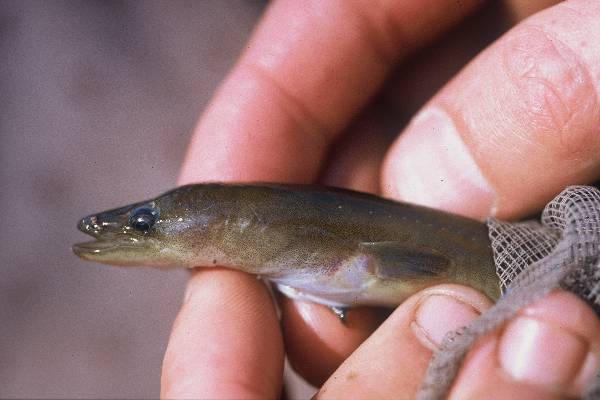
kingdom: Animalia
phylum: Chordata
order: Anguilliformes
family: Anguillidae
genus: Anguilla
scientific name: Anguilla mossambica
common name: African longfin eel
